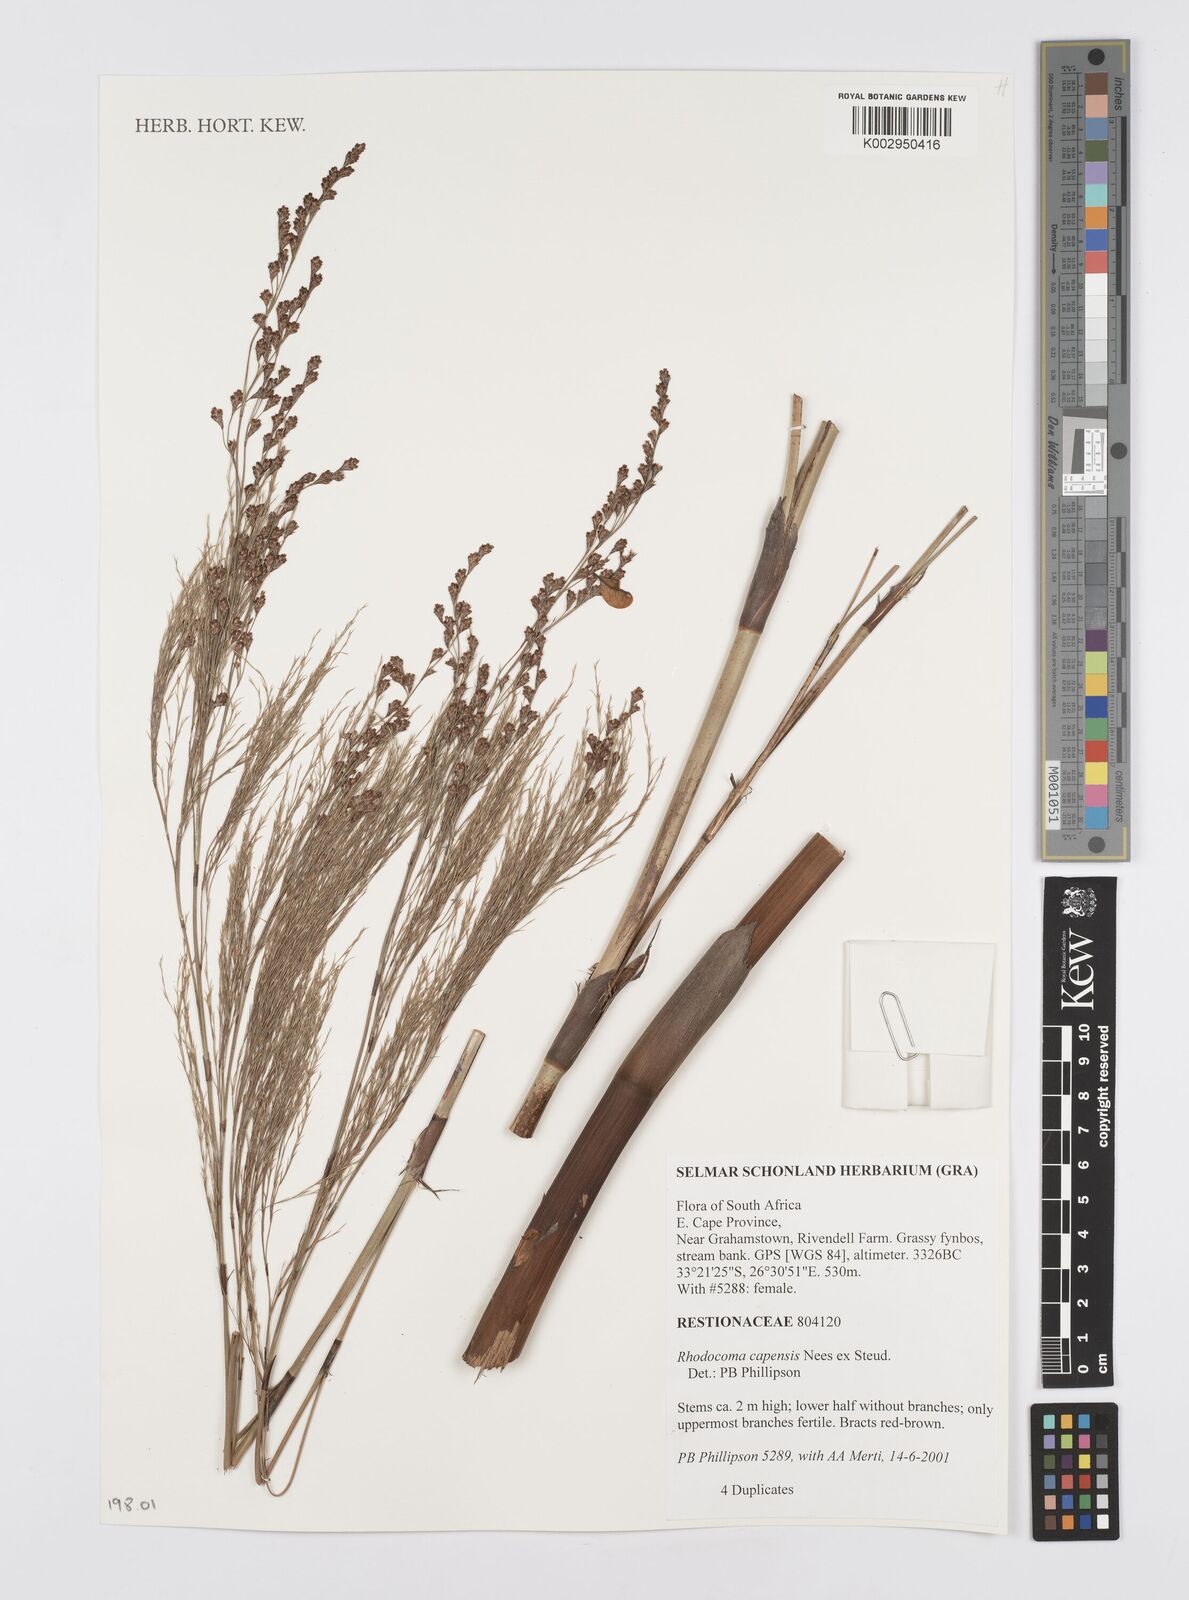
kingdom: Plantae
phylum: Tracheophyta
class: Liliopsida
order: Poales
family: Restionaceae
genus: Rhodocoma
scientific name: Rhodocoma capensis
